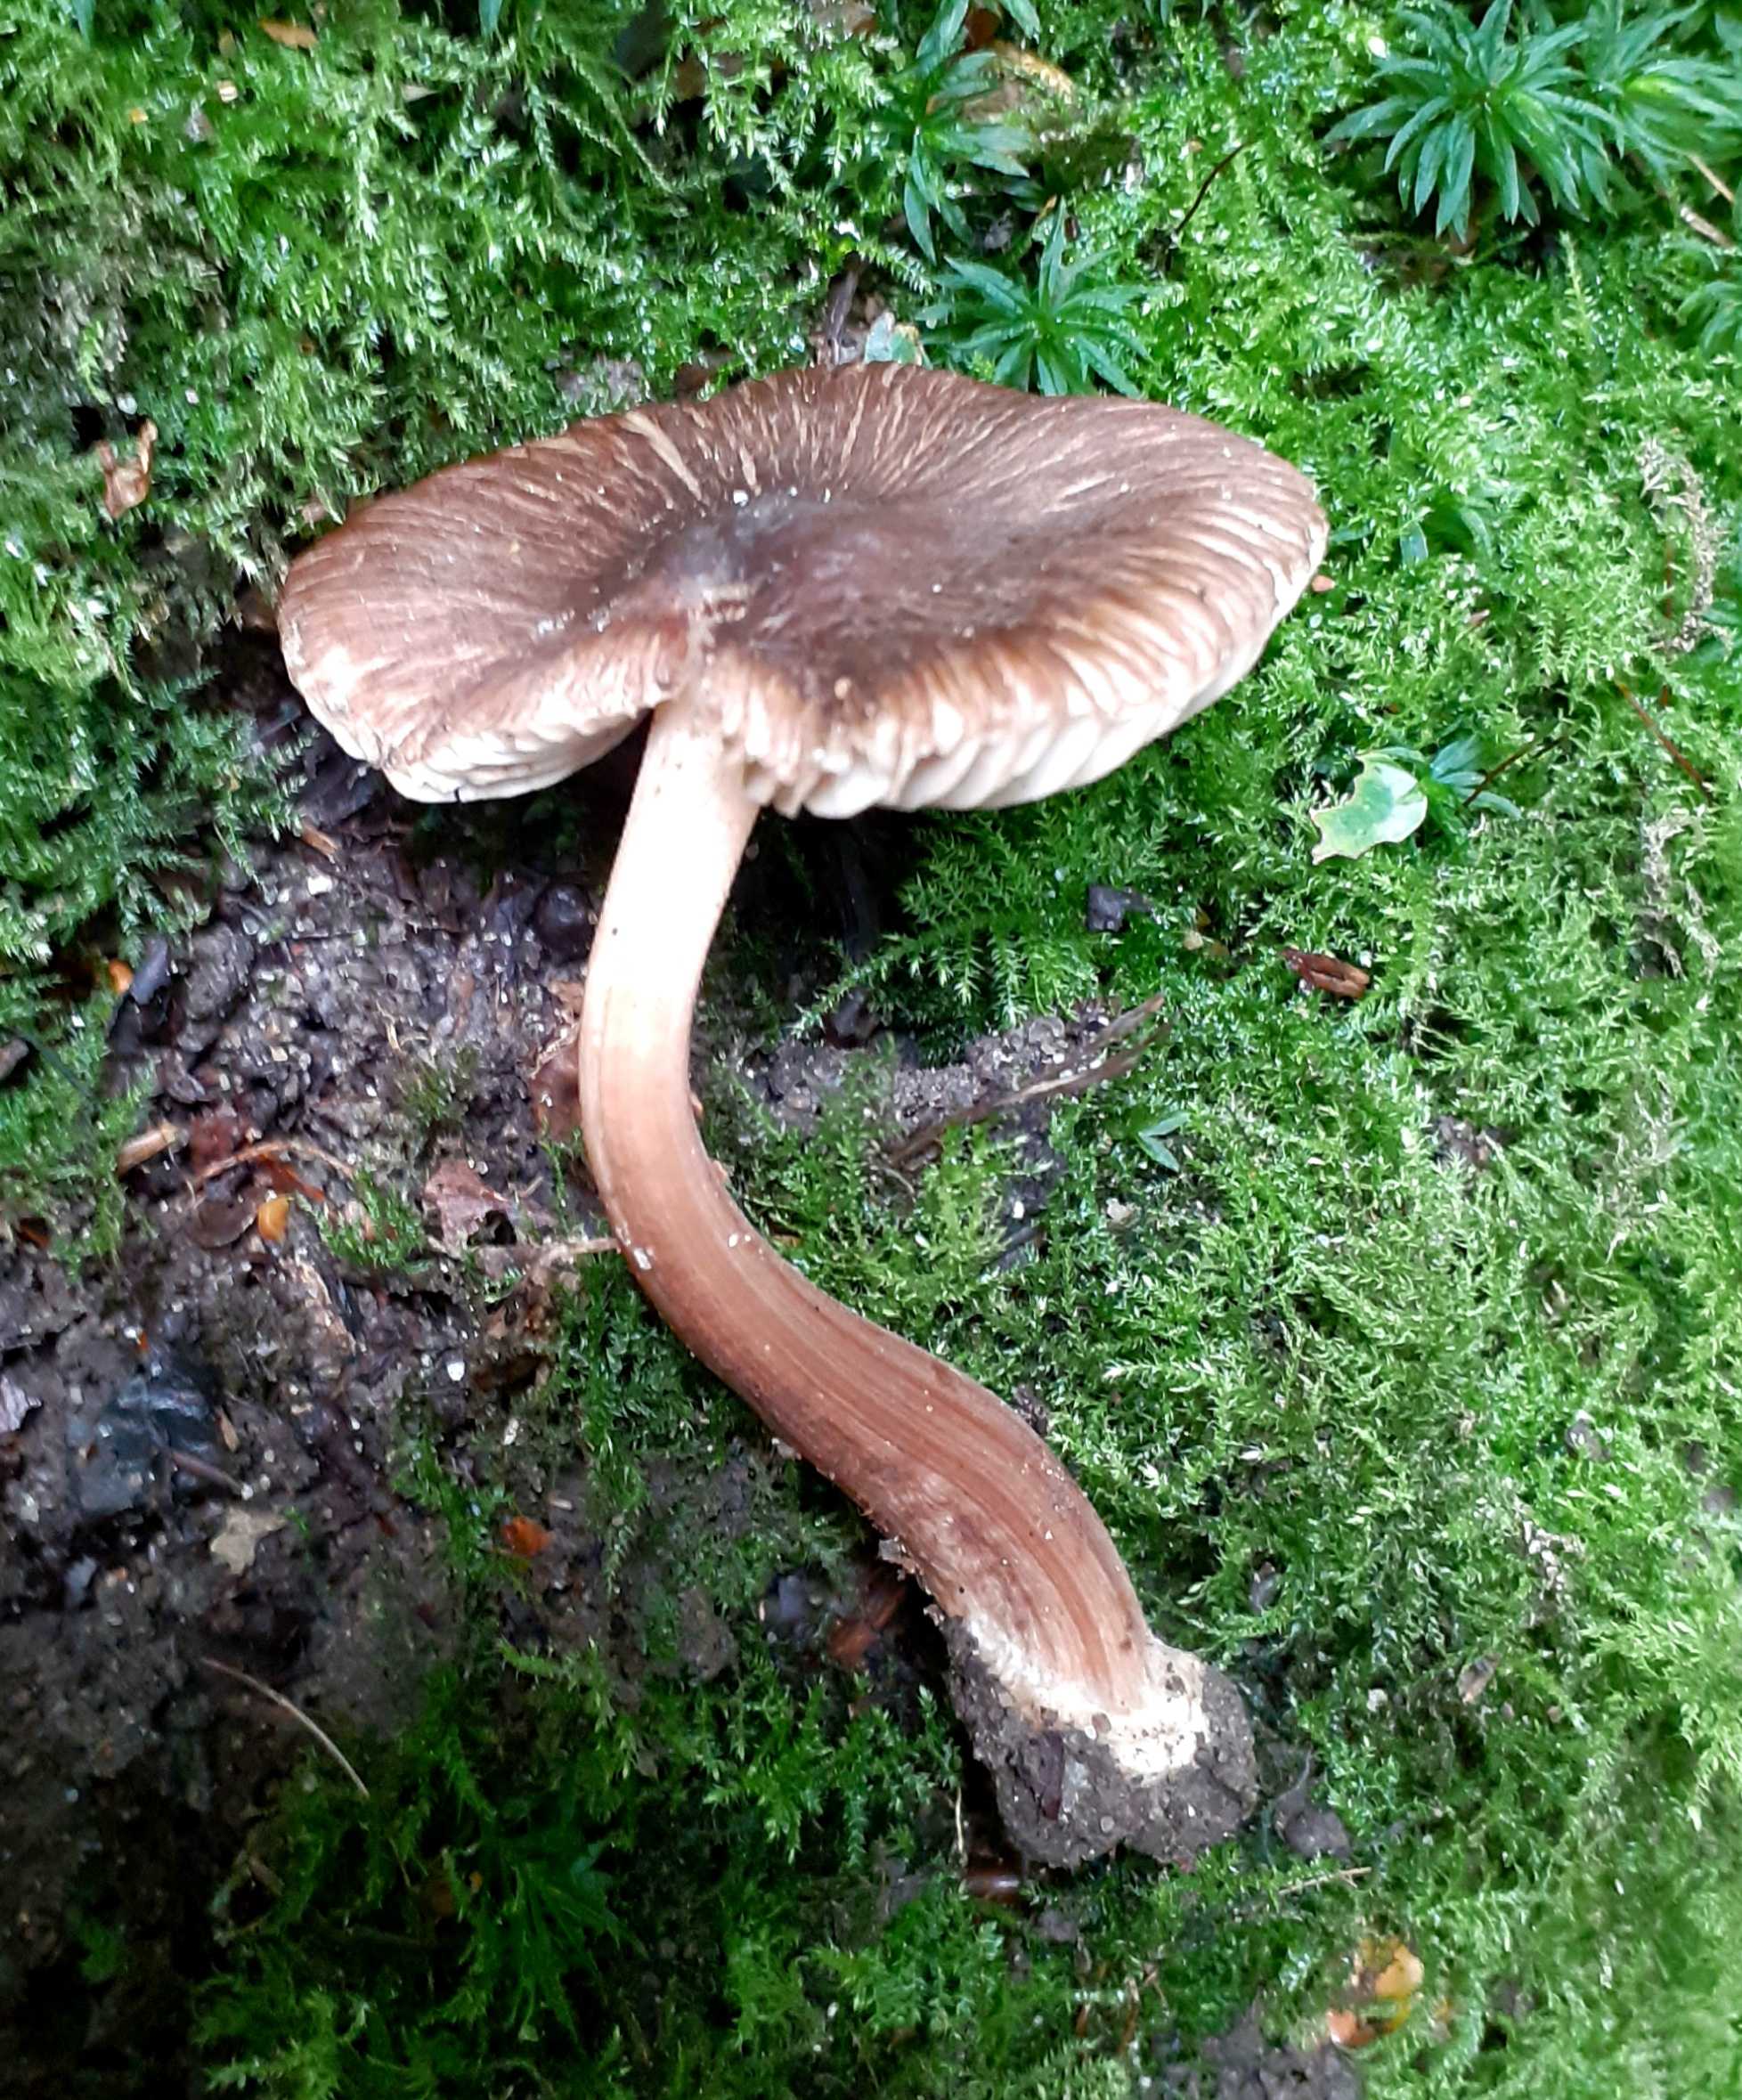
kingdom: Fungi
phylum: Basidiomycota
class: Agaricomycetes
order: Agaricales
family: Inocybaceae
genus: Inocybe
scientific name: Inocybe asterospora
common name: stjernesporet trævlhat
